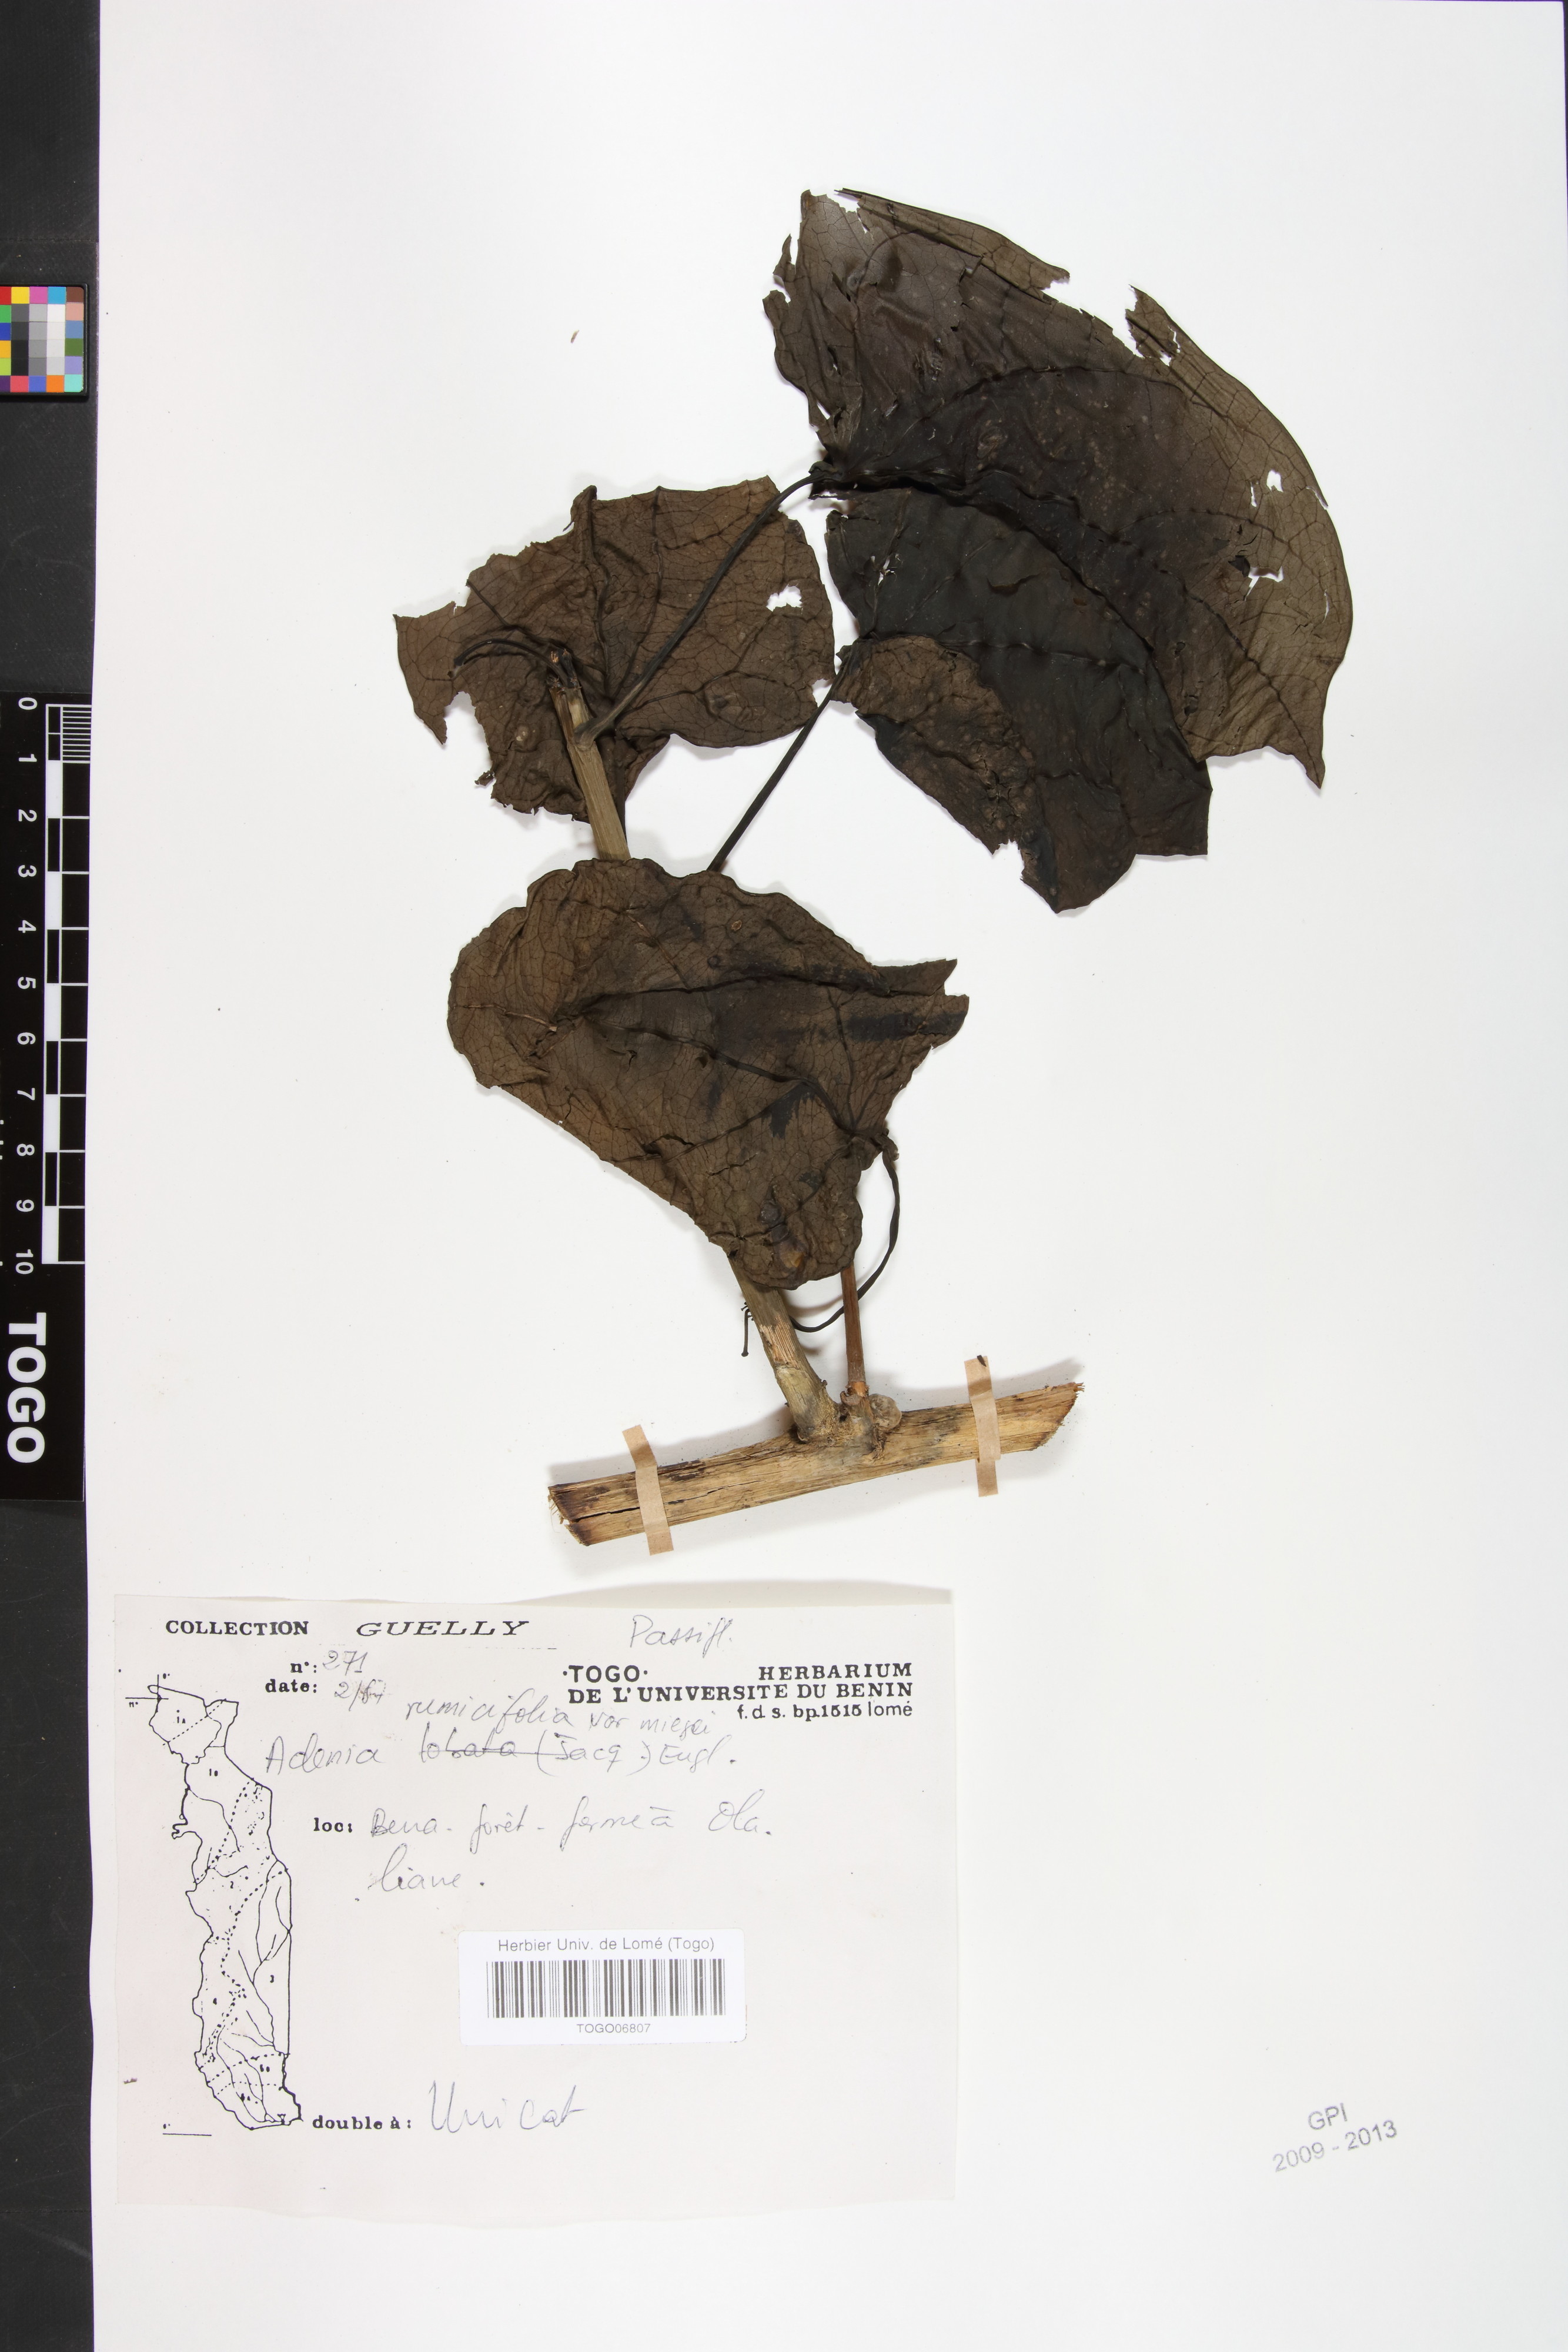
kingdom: Plantae
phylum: Tracheophyta
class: Magnoliopsida
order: Malpighiales
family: Passifloraceae
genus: Adenia
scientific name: Adenia lobata
